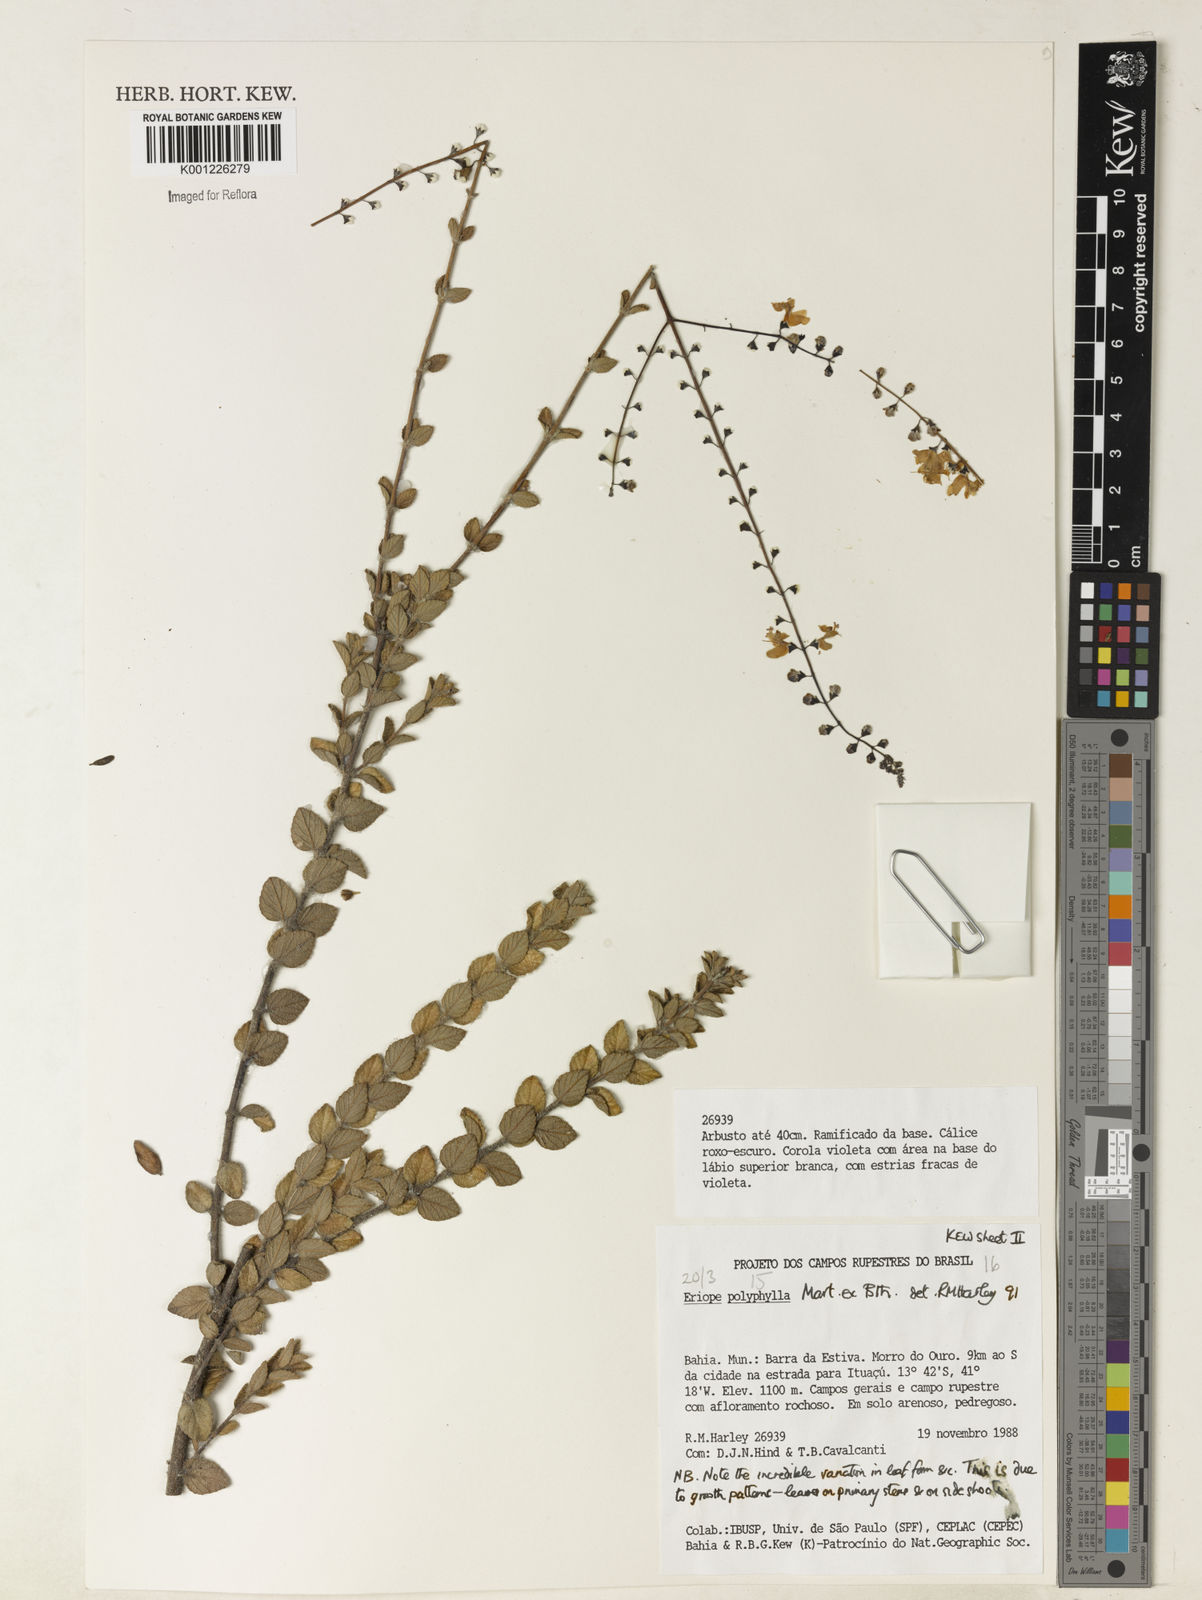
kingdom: Plantae
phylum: Tracheophyta
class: Magnoliopsida
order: Lamiales
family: Lamiaceae
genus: Eriope
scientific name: Eriope polyphylla
